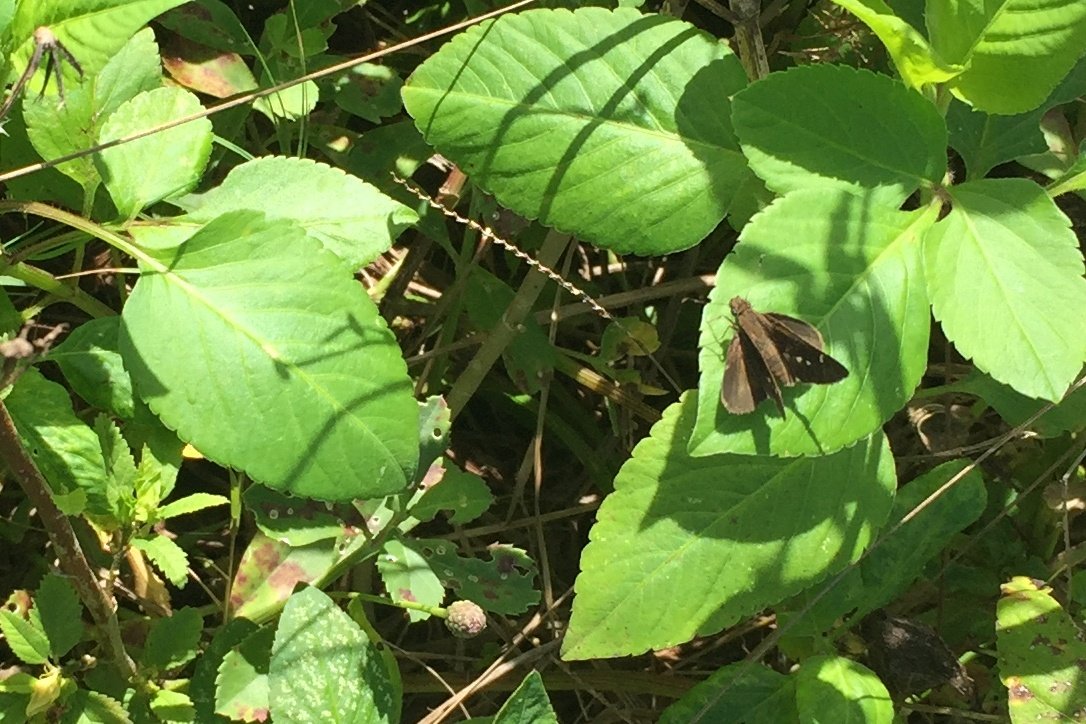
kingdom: Animalia
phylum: Arthropoda
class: Insecta
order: Lepidoptera
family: Hesperiidae
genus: Cymaenes
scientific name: Cymaenes tripunctus
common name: Three-spotted Skipper
